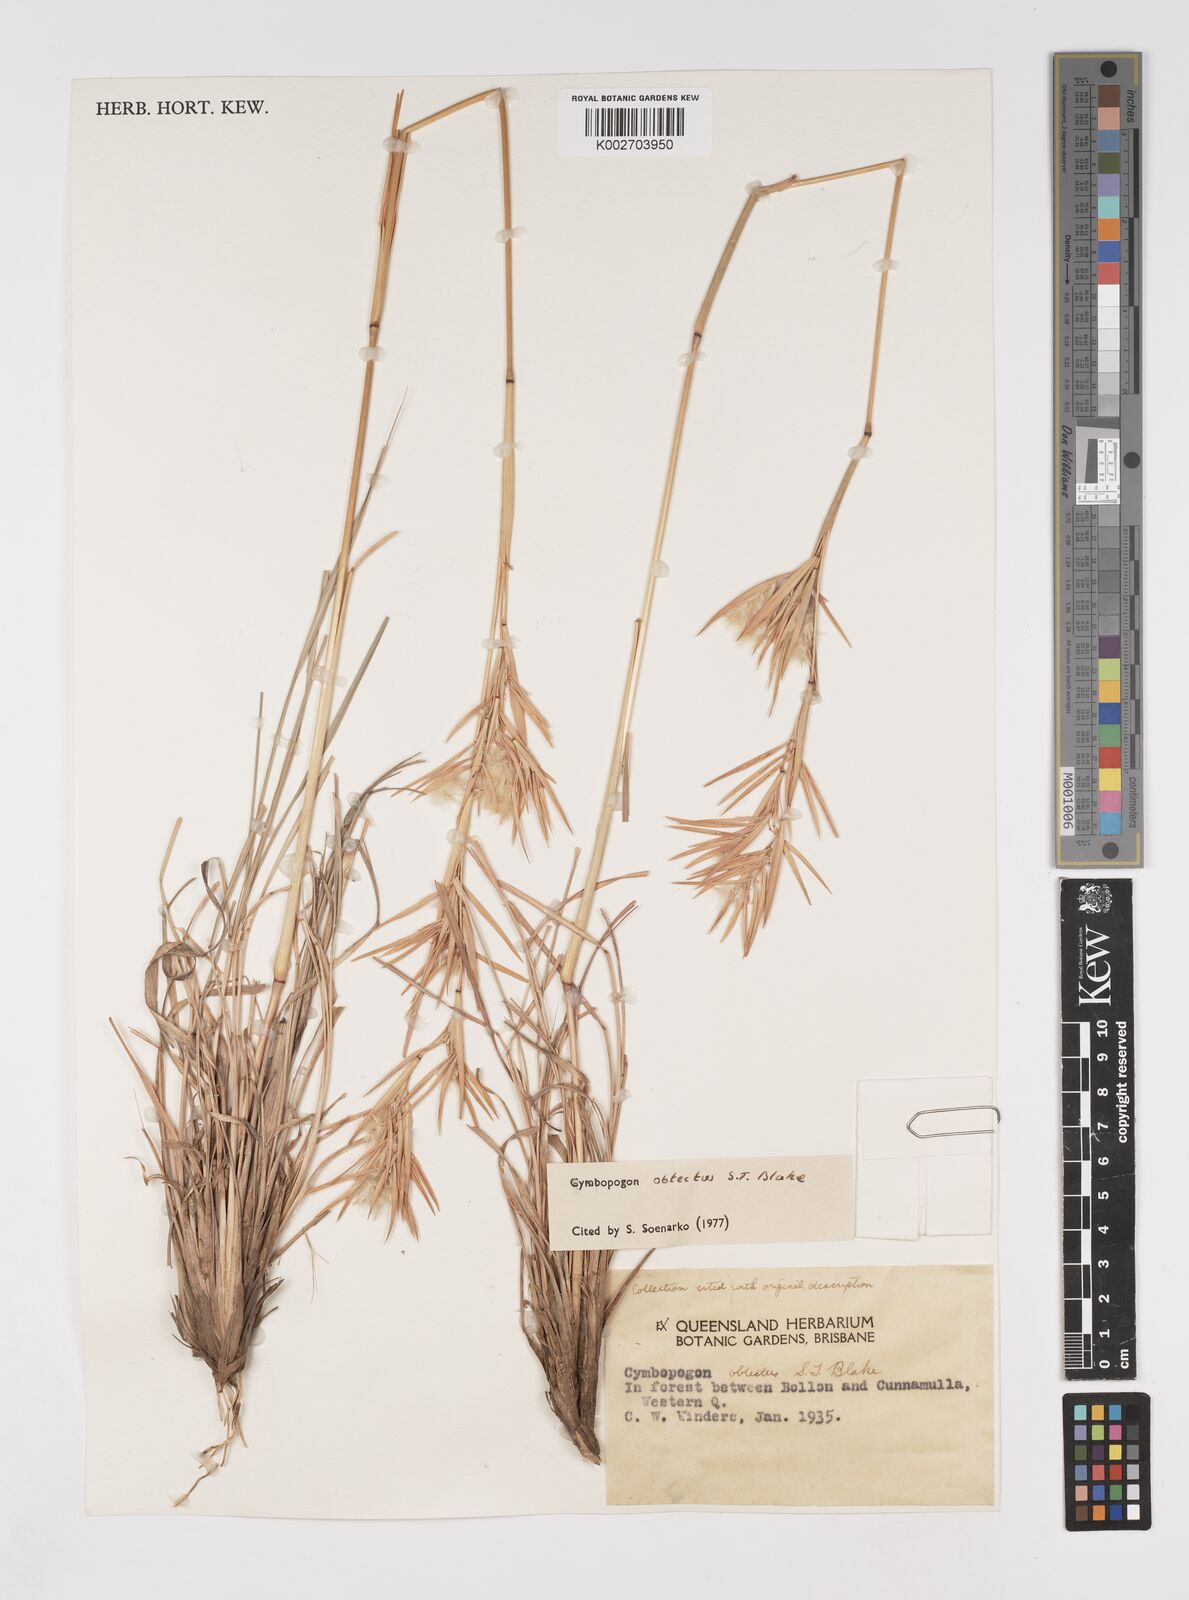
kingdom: Plantae
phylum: Tracheophyta
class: Liliopsida
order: Poales
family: Poaceae
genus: Cymbopogon
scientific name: Cymbopogon obtectus
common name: Silky heads
